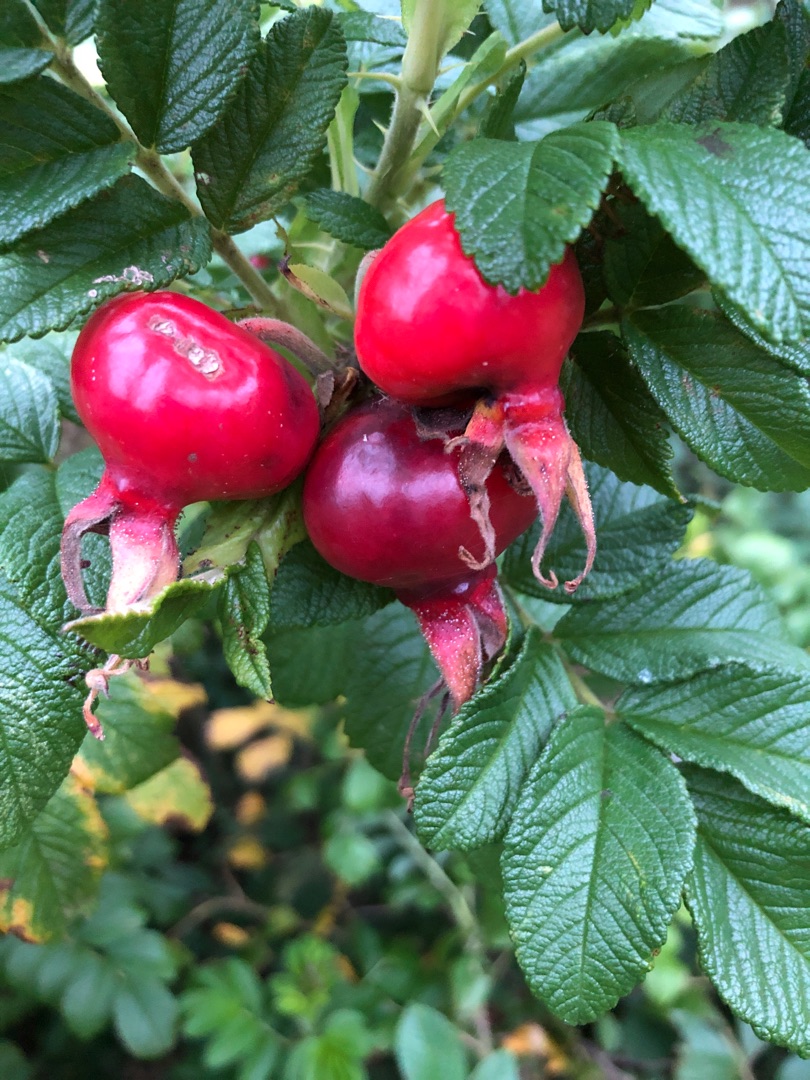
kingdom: Plantae
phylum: Tracheophyta
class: Magnoliopsida
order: Rosales
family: Rosaceae
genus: Rosa
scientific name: Rosa rugosa
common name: Rynket rose
